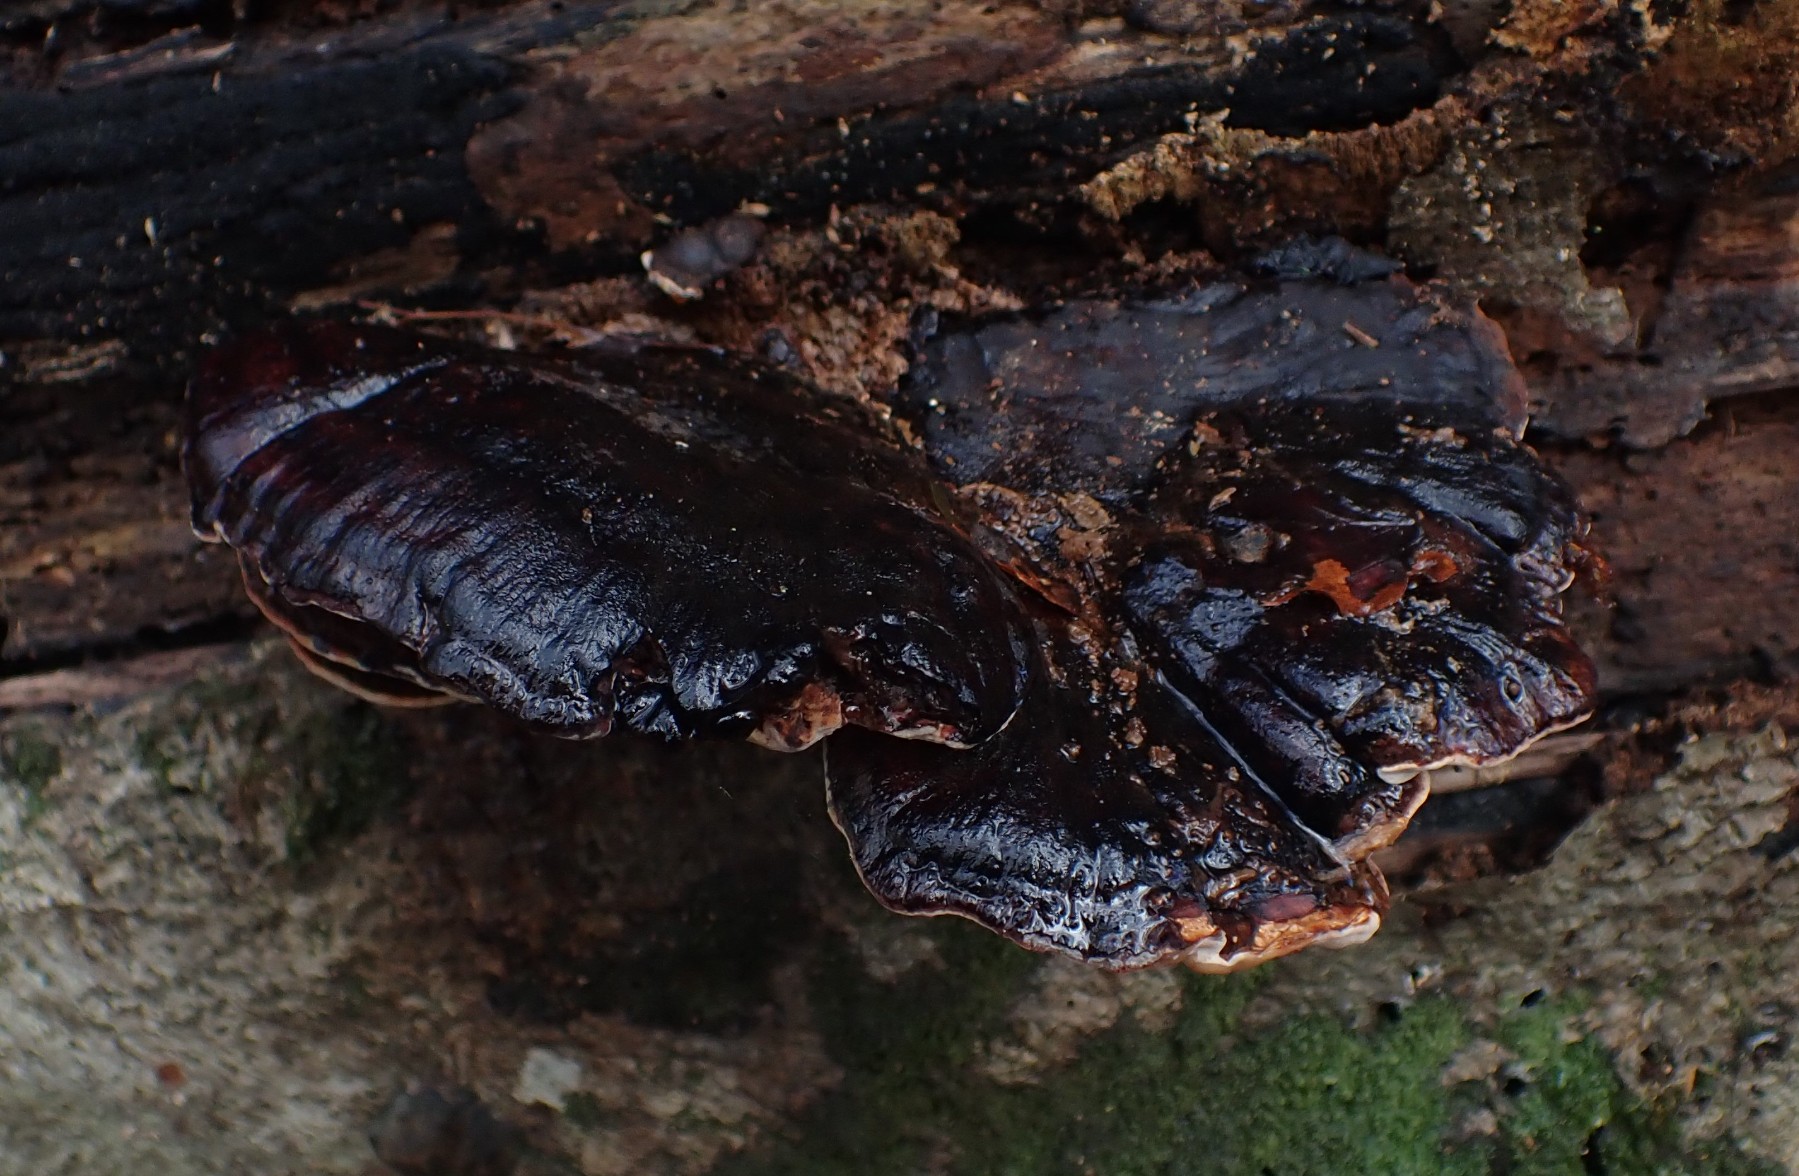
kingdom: Fungi
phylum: Basidiomycota
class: Agaricomycetes
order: Polyporales
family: Ischnodermataceae
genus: Ischnoderma
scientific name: Ischnoderma resinosum
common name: løv-tjæreporesvamp
